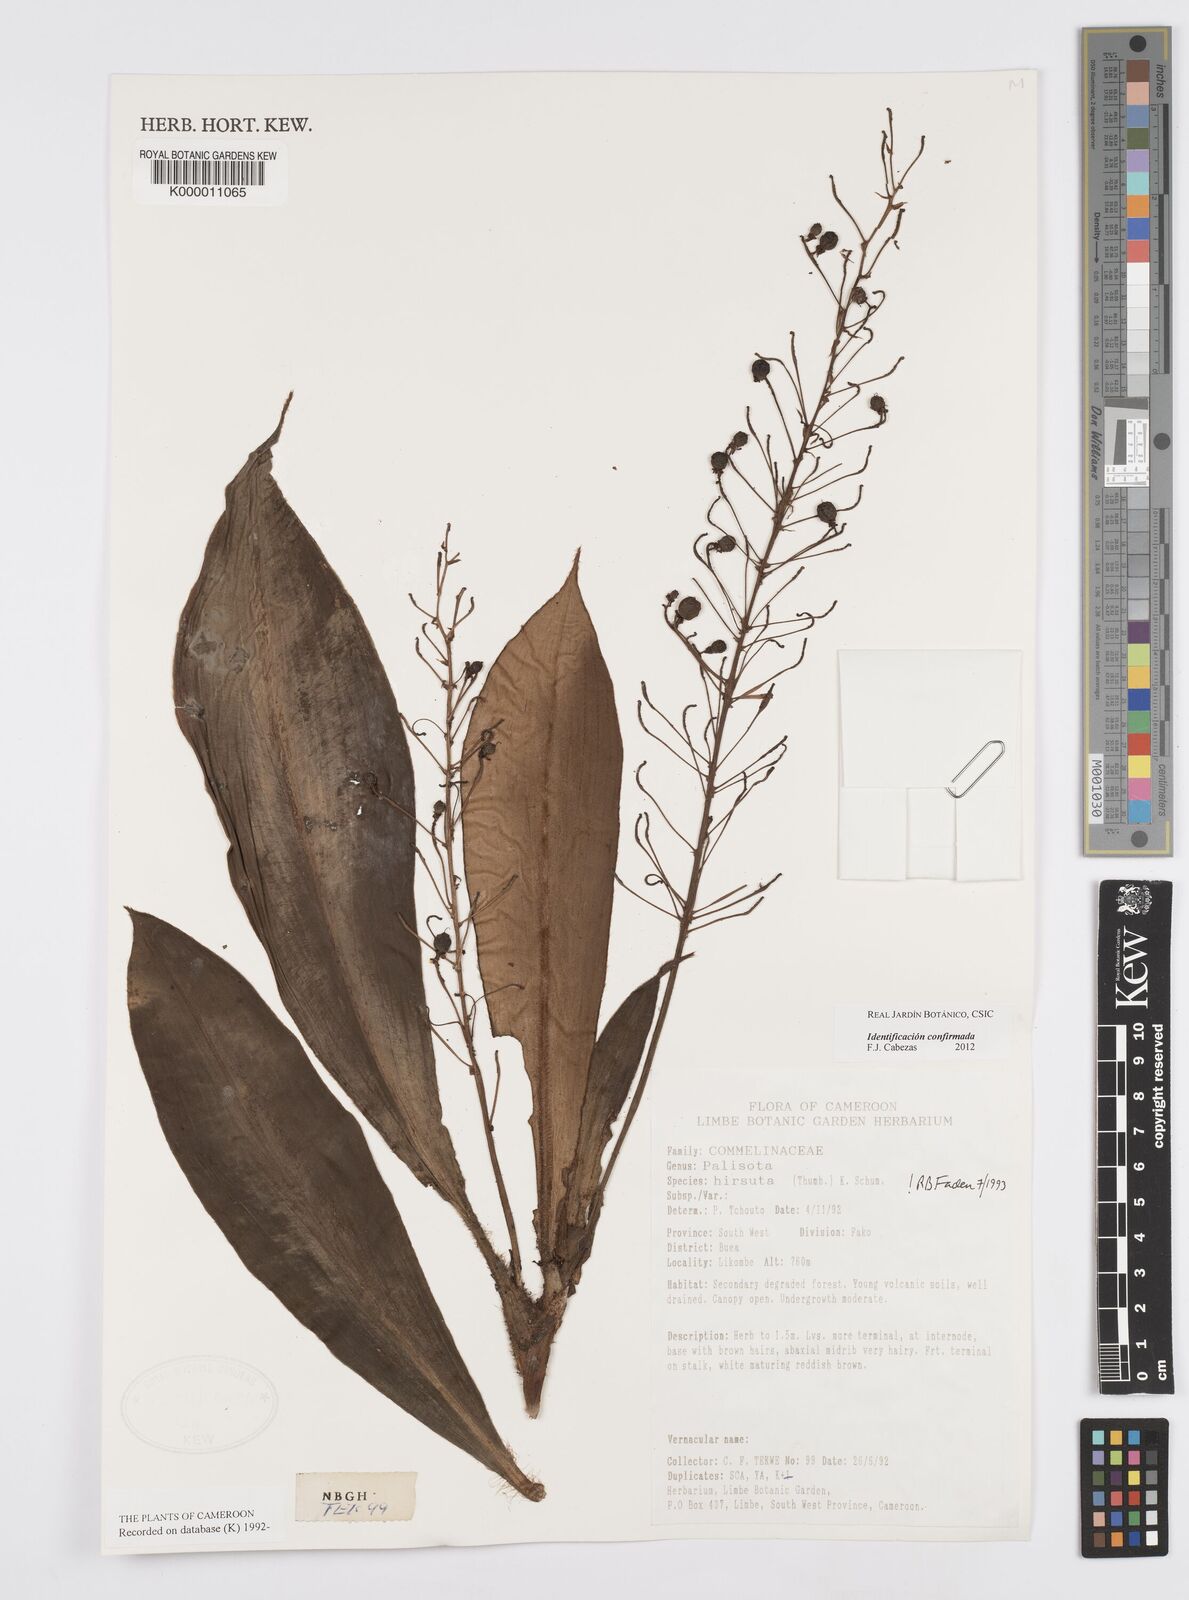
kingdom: Plantae
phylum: Tracheophyta
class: Liliopsida
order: Commelinales
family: Commelinaceae
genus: Palisota
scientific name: Palisota hirsuta
